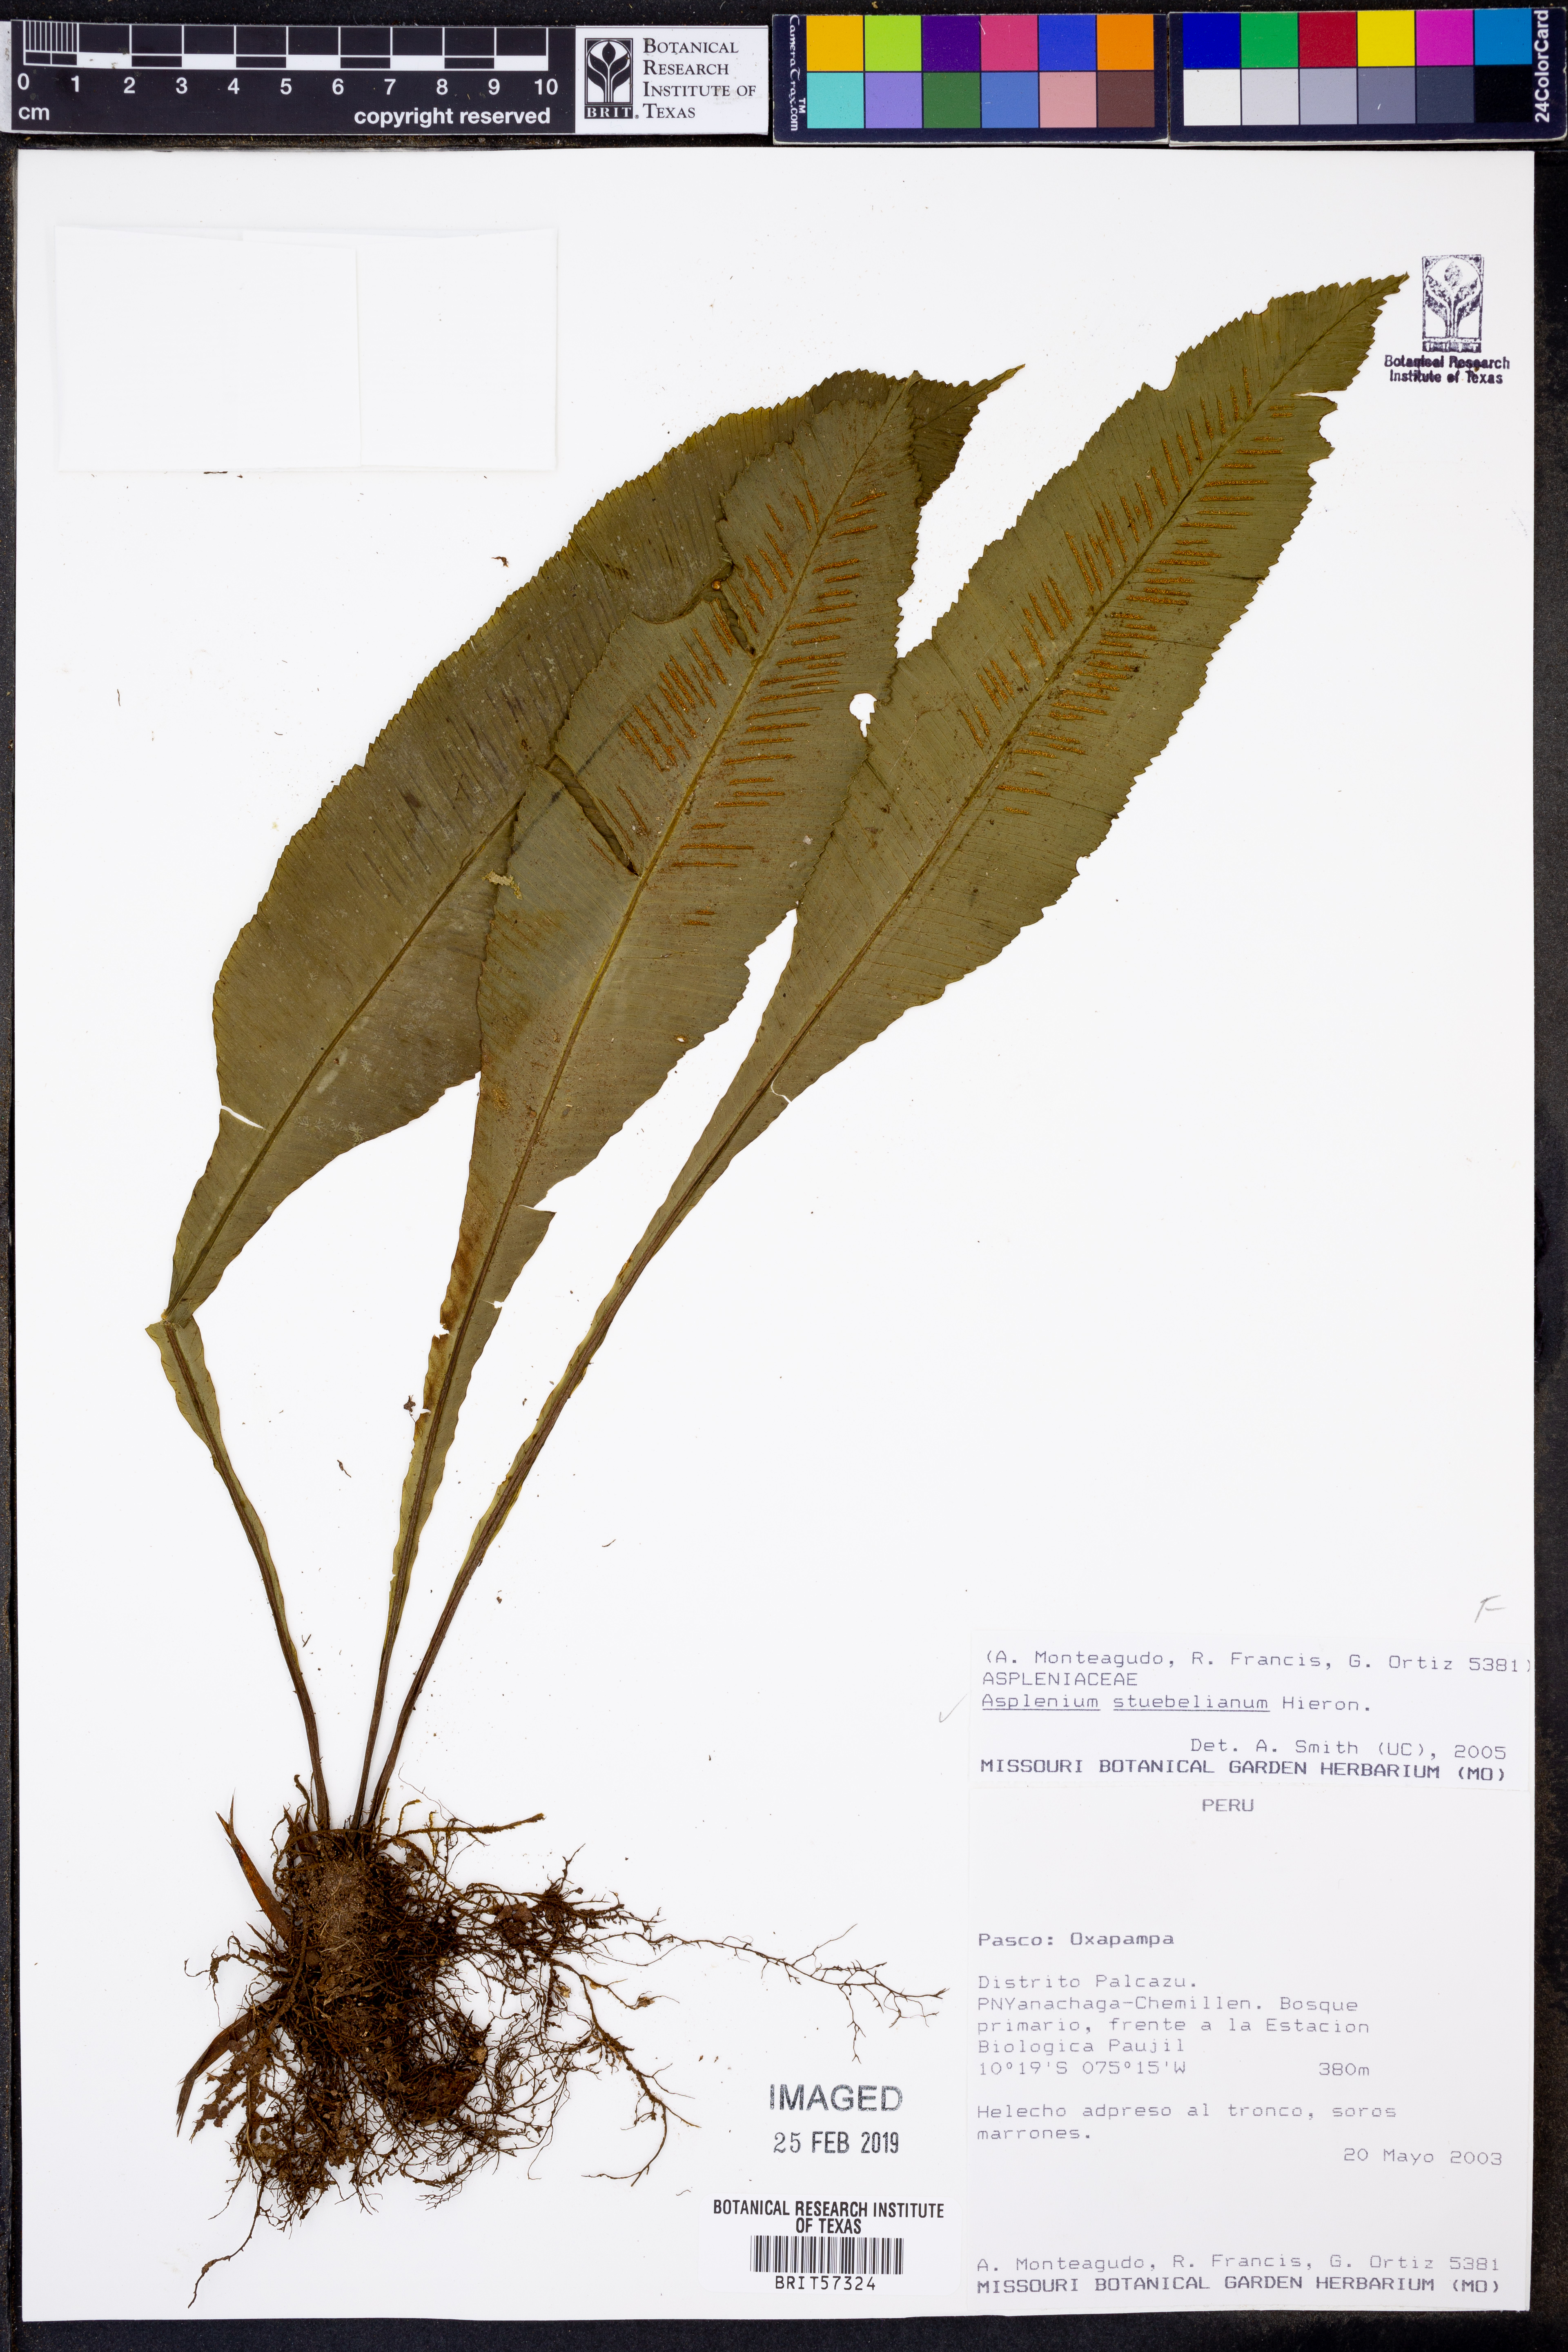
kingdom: Plantae
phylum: Tracheophyta
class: Polypodiopsida
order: Polypodiales
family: Aspleniaceae
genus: Asplenium
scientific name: Asplenium stuebelianum
